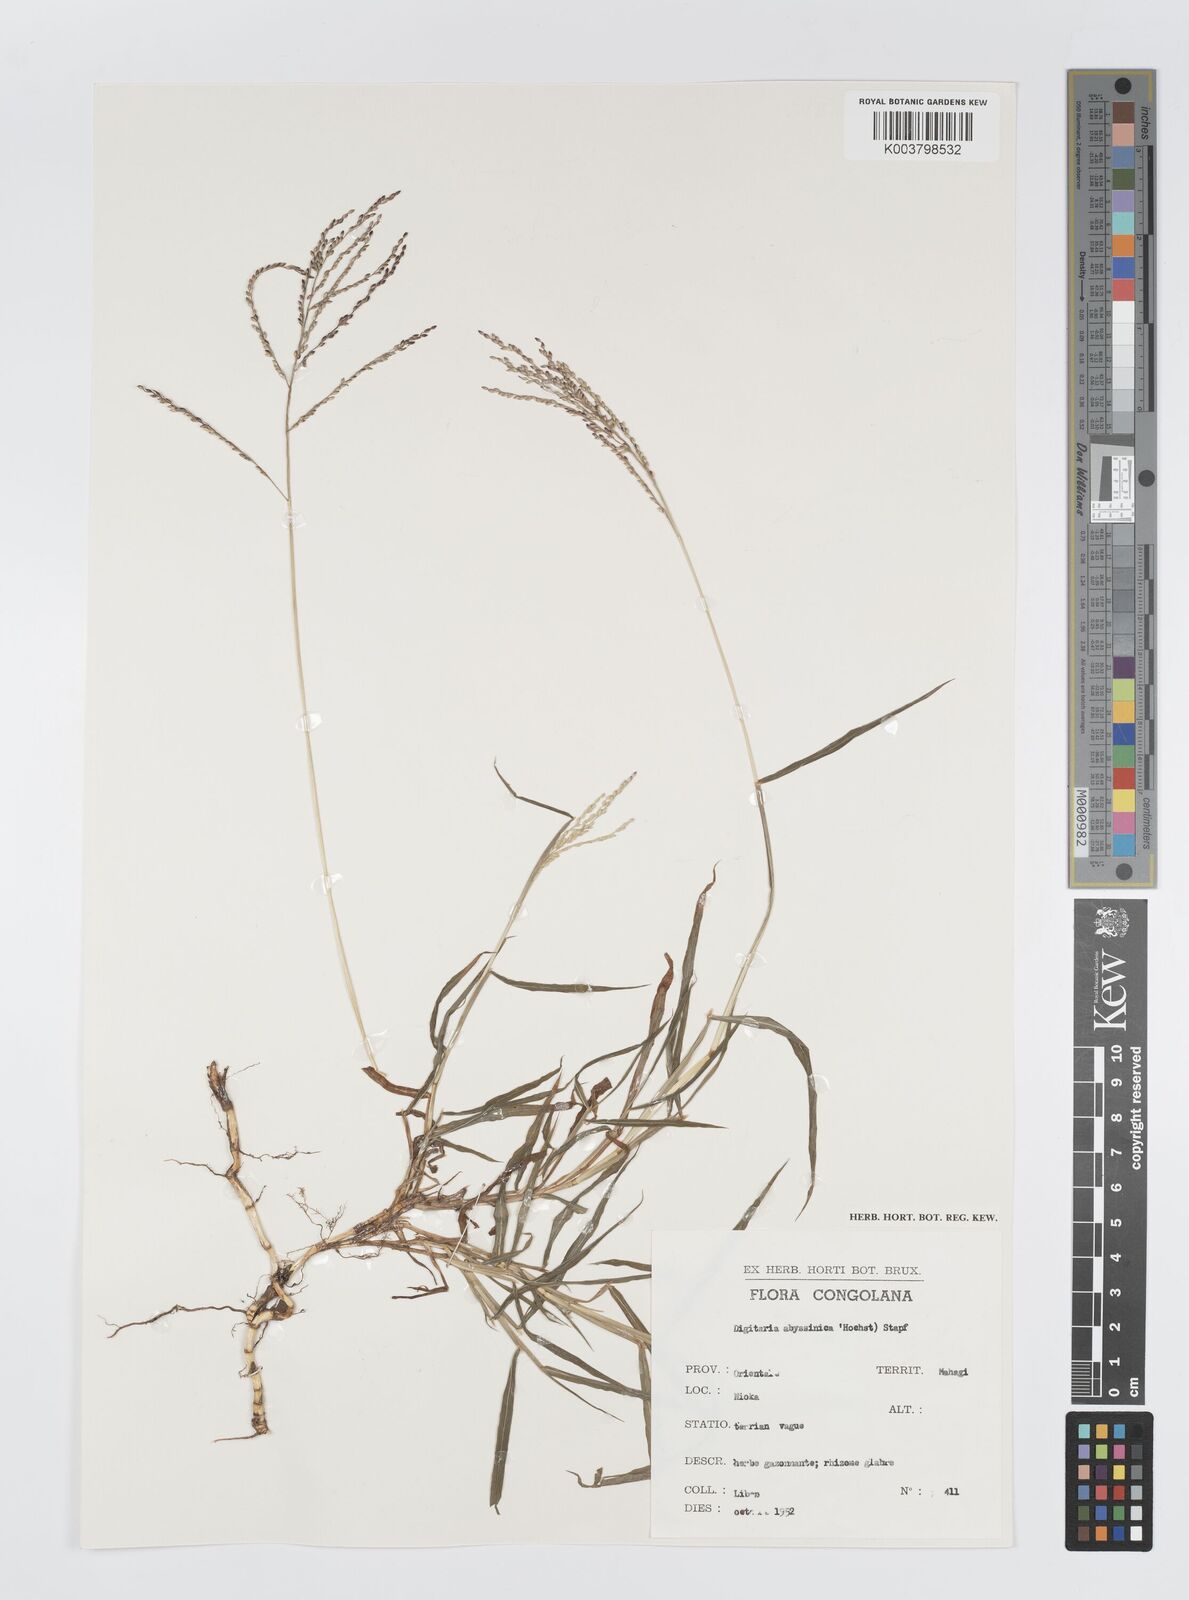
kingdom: Plantae
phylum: Tracheophyta
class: Liliopsida
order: Poales
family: Poaceae
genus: Digitaria
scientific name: Digitaria abyssinica
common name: African couchgrass
